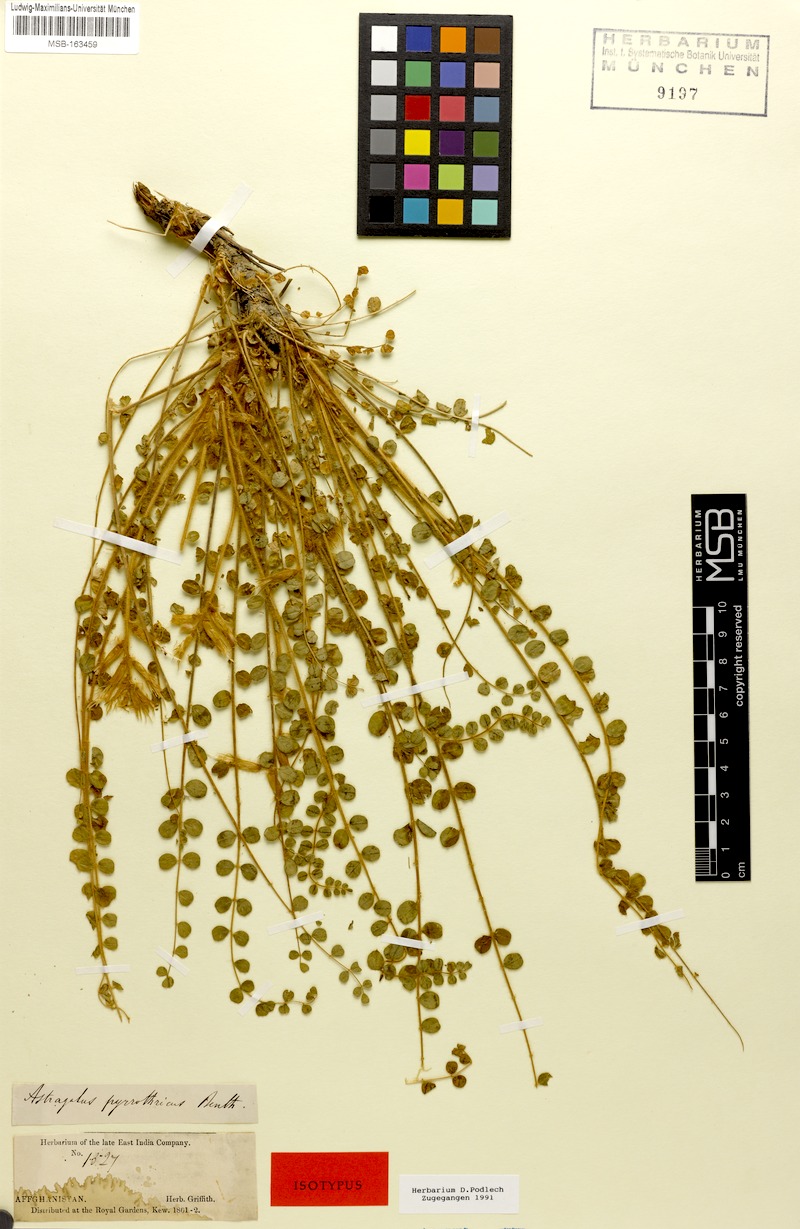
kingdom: Plantae
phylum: Tracheophyta
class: Magnoliopsida
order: Fabales
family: Fabaceae
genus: Astragalus
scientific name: Astragalus pyrrhotrichus
